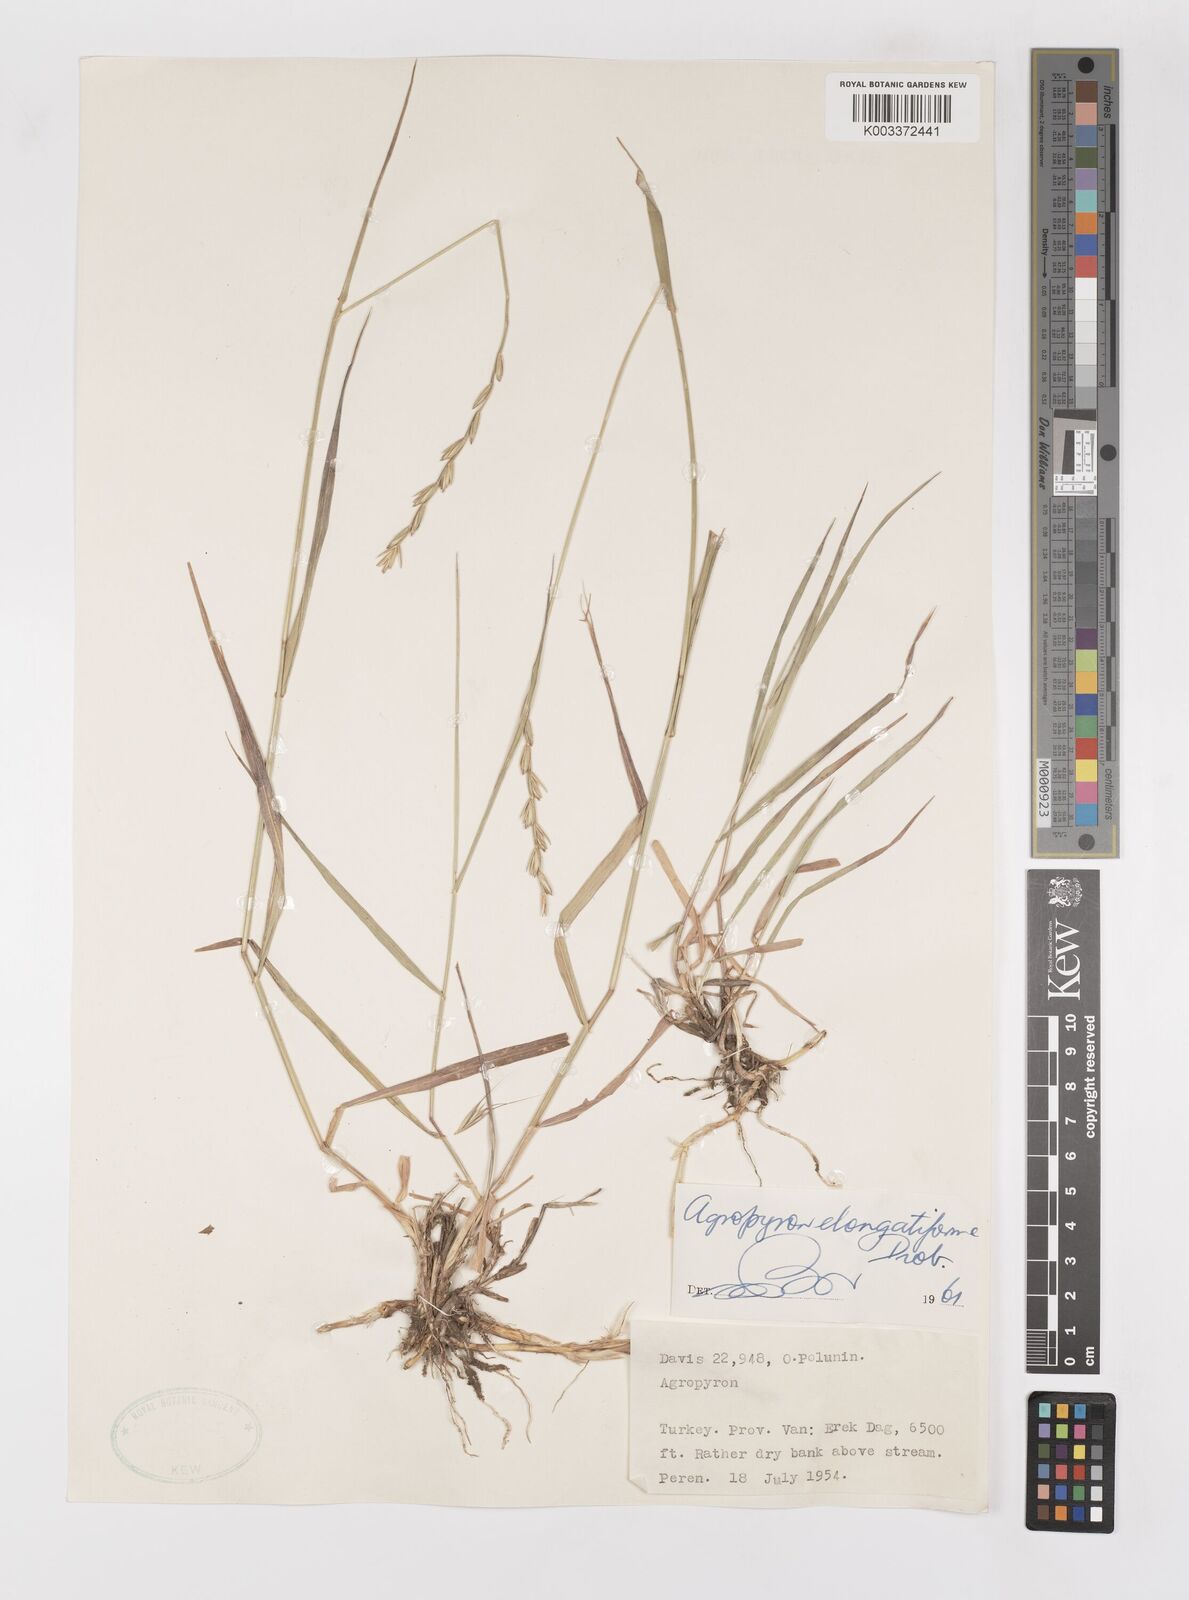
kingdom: Plantae
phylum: Tracheophyta
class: Liliopsida
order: Poales
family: Poaceae
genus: Elymus
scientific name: Elymus repens
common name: Quackgrass
